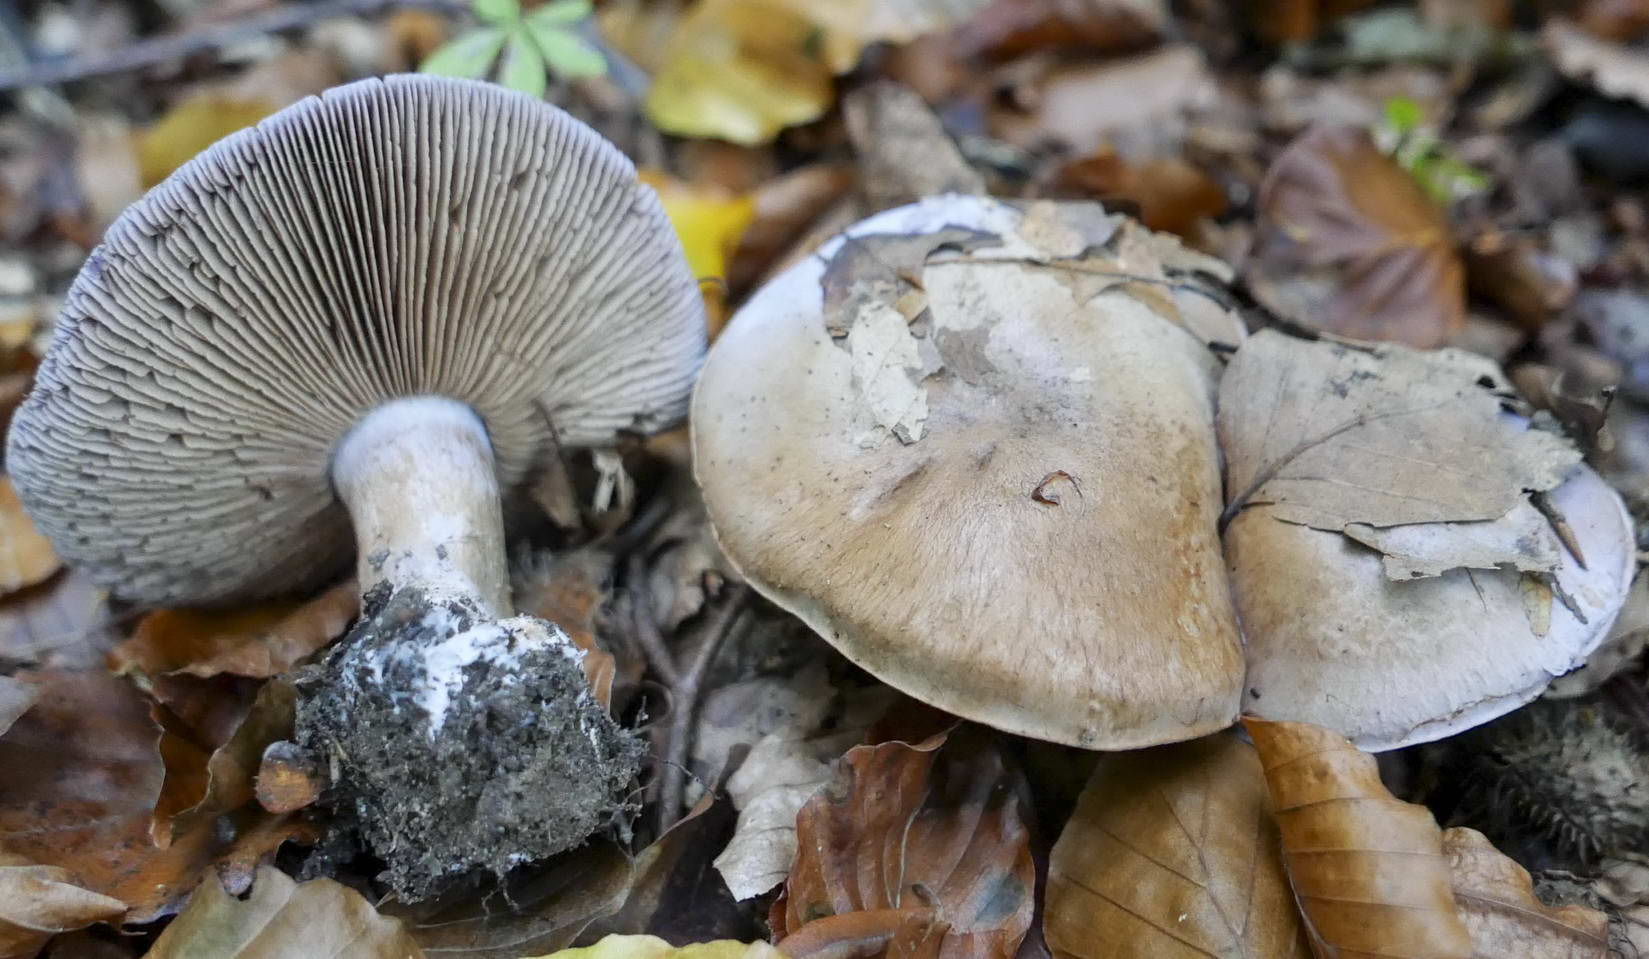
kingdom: Fungi
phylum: Basidiomycota
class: Agaricomycetes
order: Agaricales
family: Cortinariaceae
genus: Cortinarius
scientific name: Cortinarius largus
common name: violetrandet slørhat
